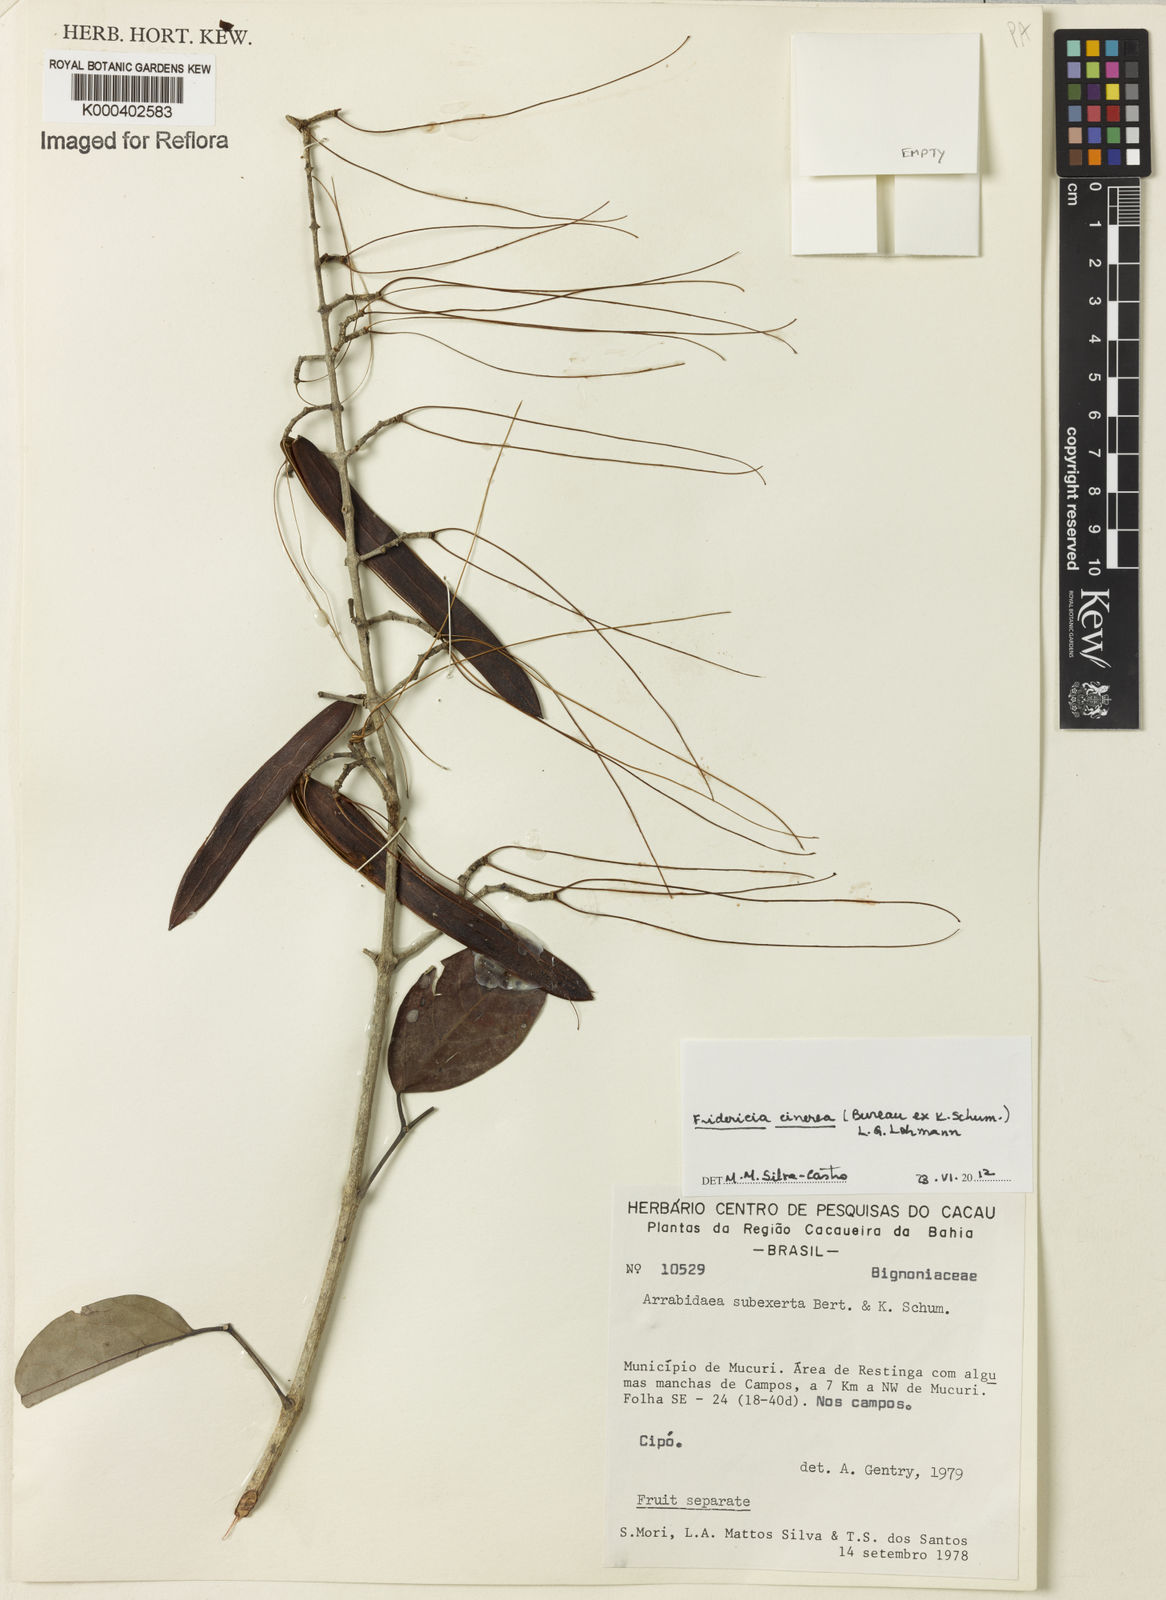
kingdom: Plantae
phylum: Tracheophyta
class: Magnoliopsida
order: Lamiales
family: Bignoniaceae
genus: Fridericia
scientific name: Fridericia cinerea
